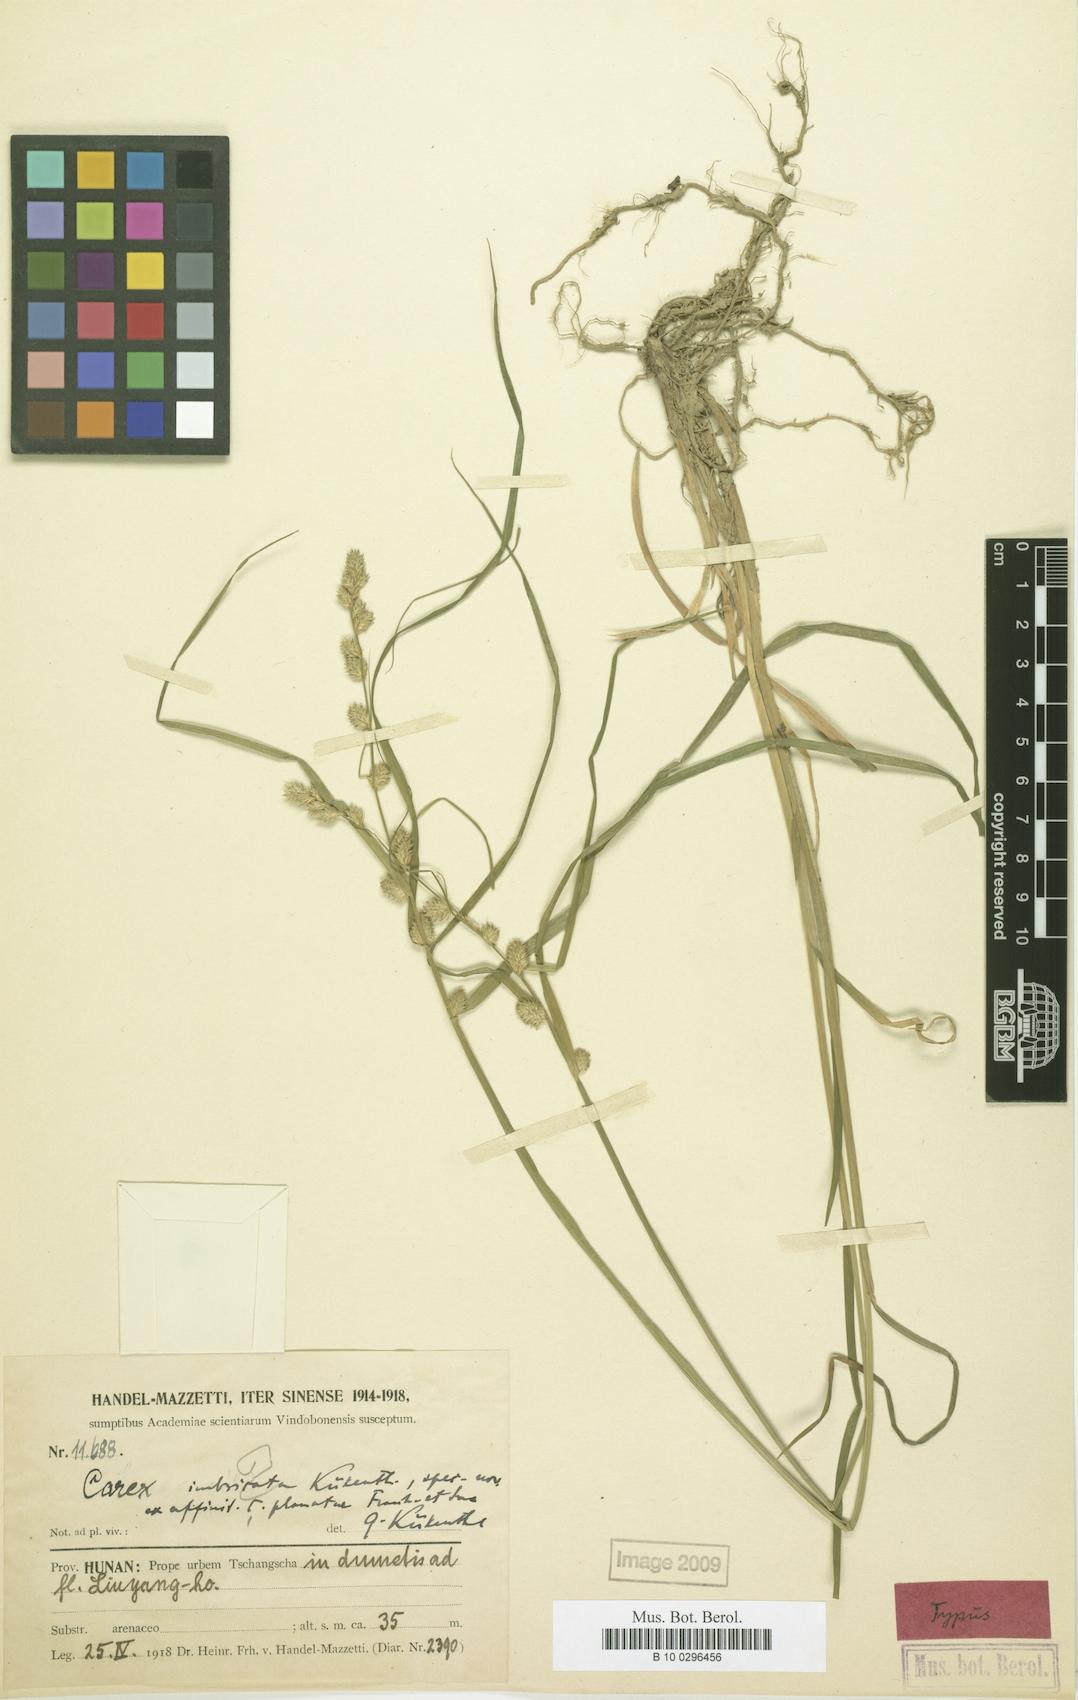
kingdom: Plantae
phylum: Tracheophyta
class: Liliopsida
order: Poales
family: Cyperaceae
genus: Carex
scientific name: Carex alta
